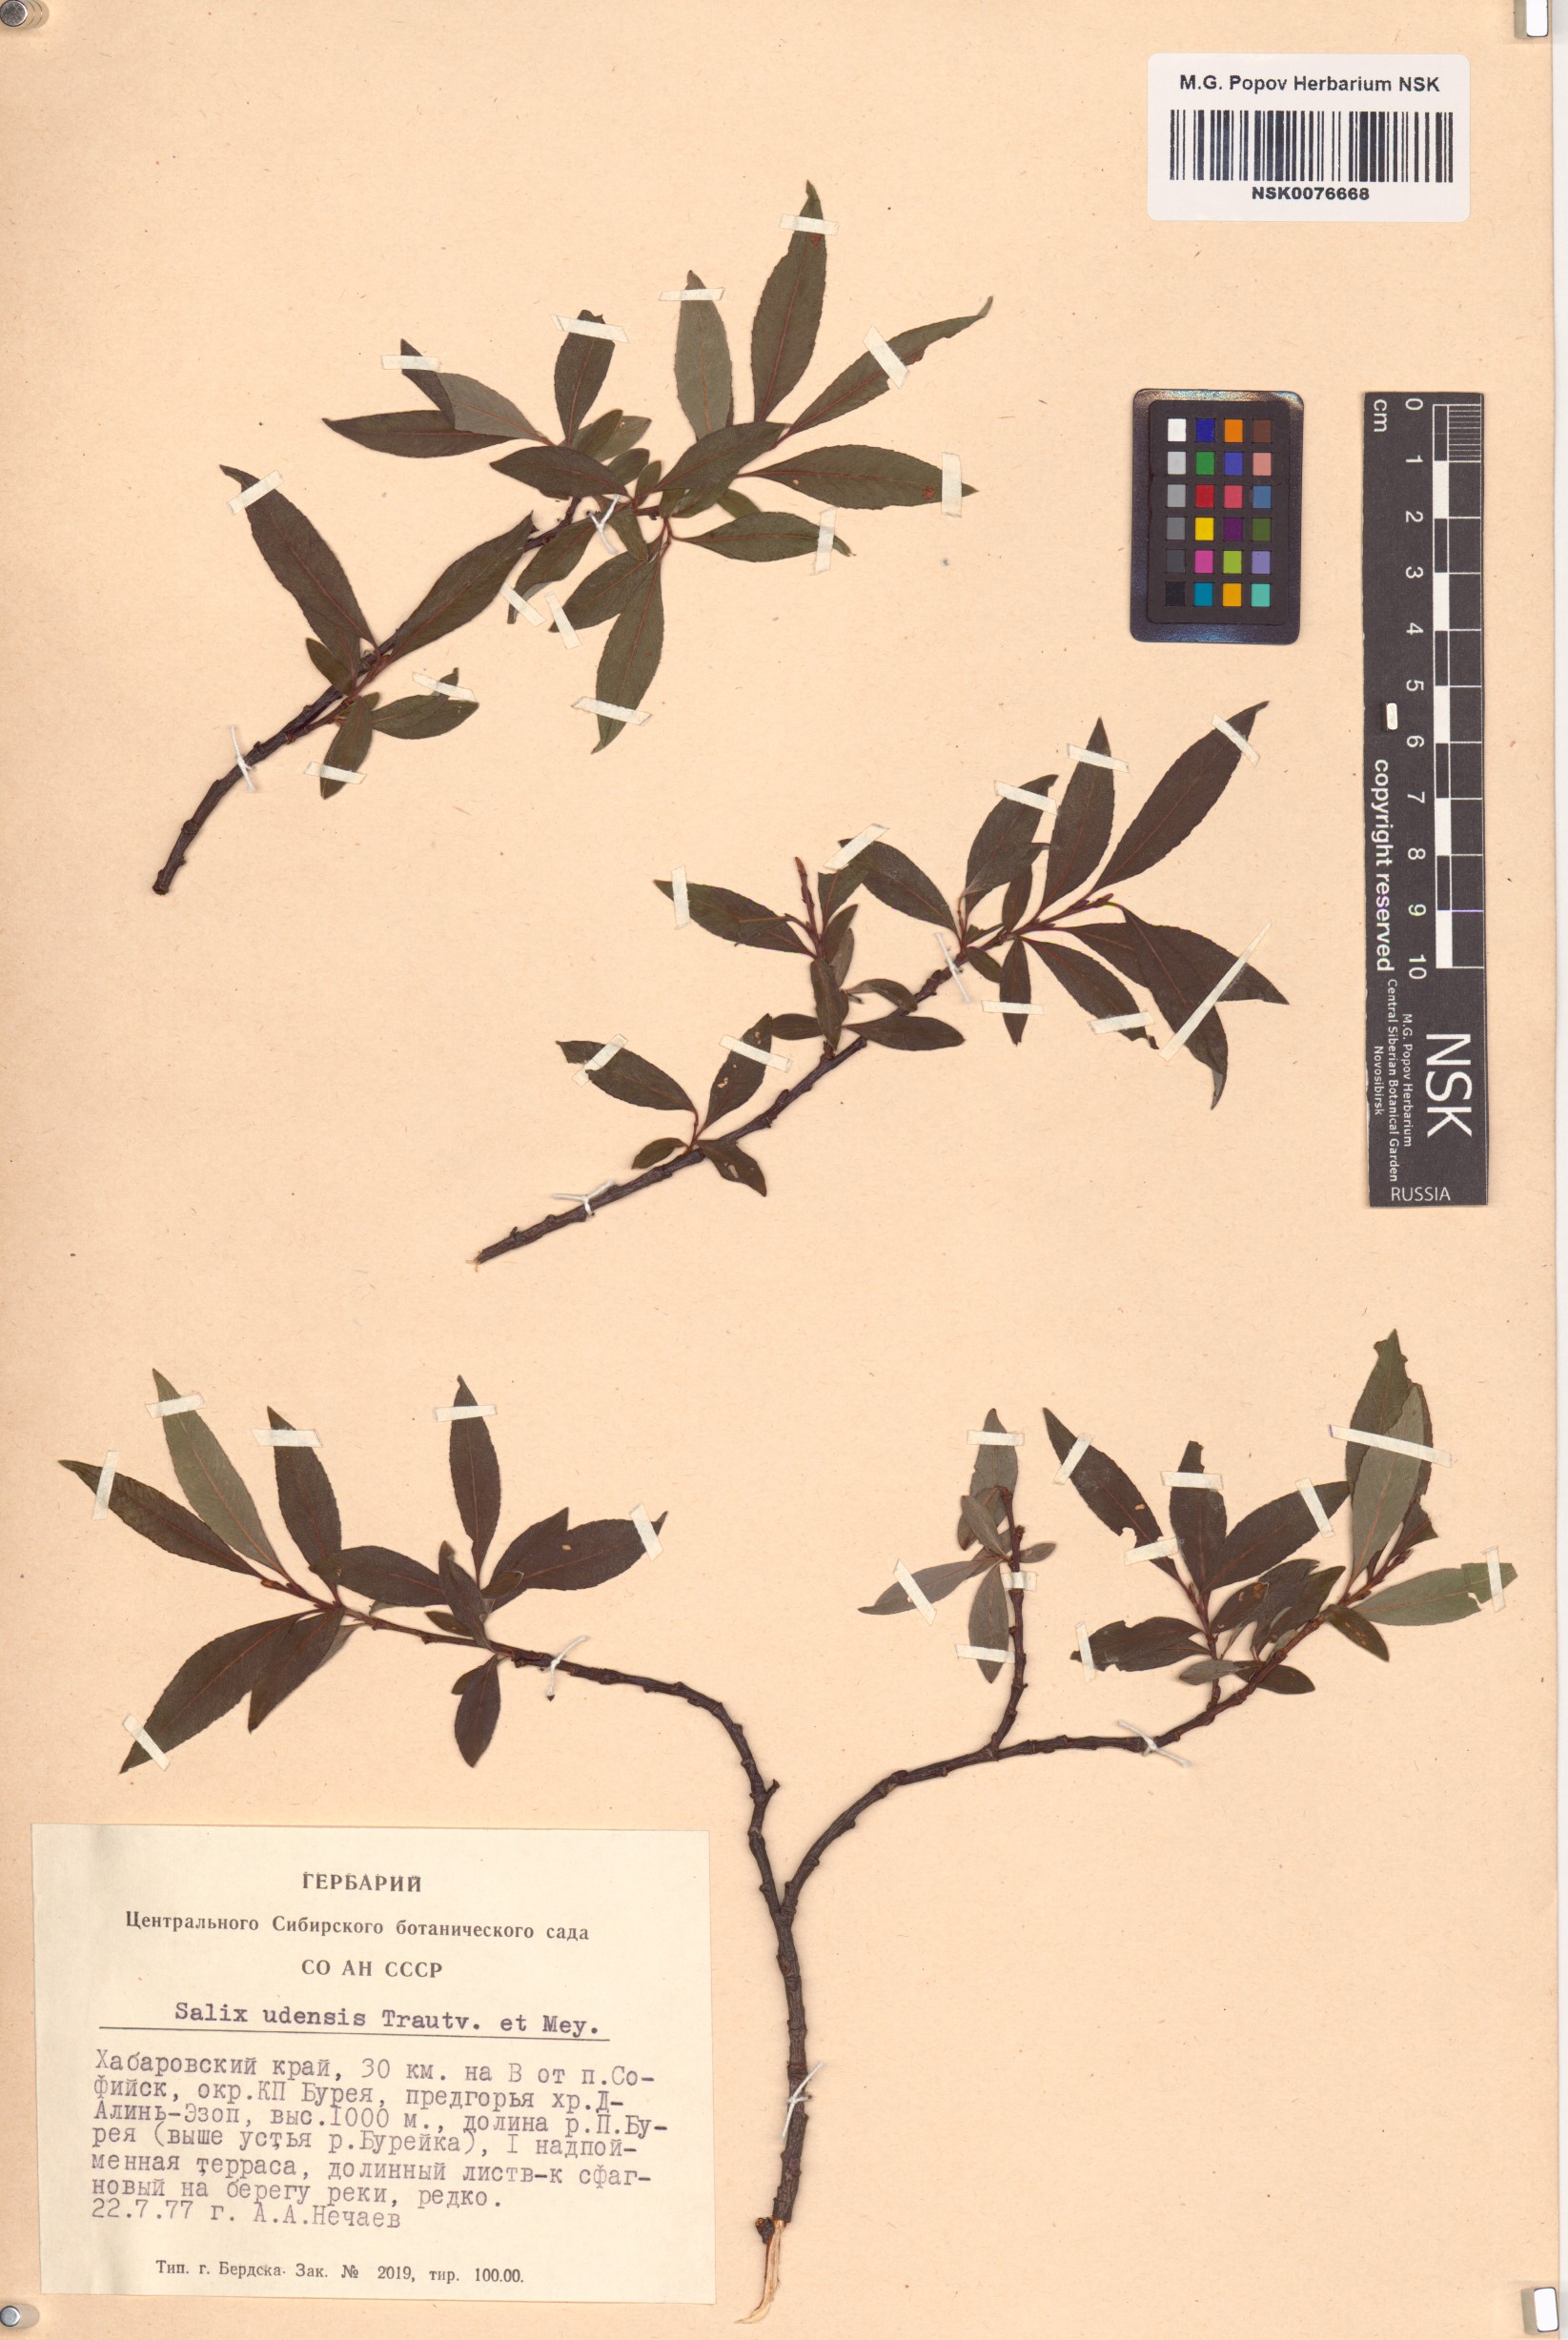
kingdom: Plantae
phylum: Tracheophyta
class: Magnoliopsida
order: Malpighiales
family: Salicaceae
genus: Salix
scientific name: Salix udensis
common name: Sachalin willow
